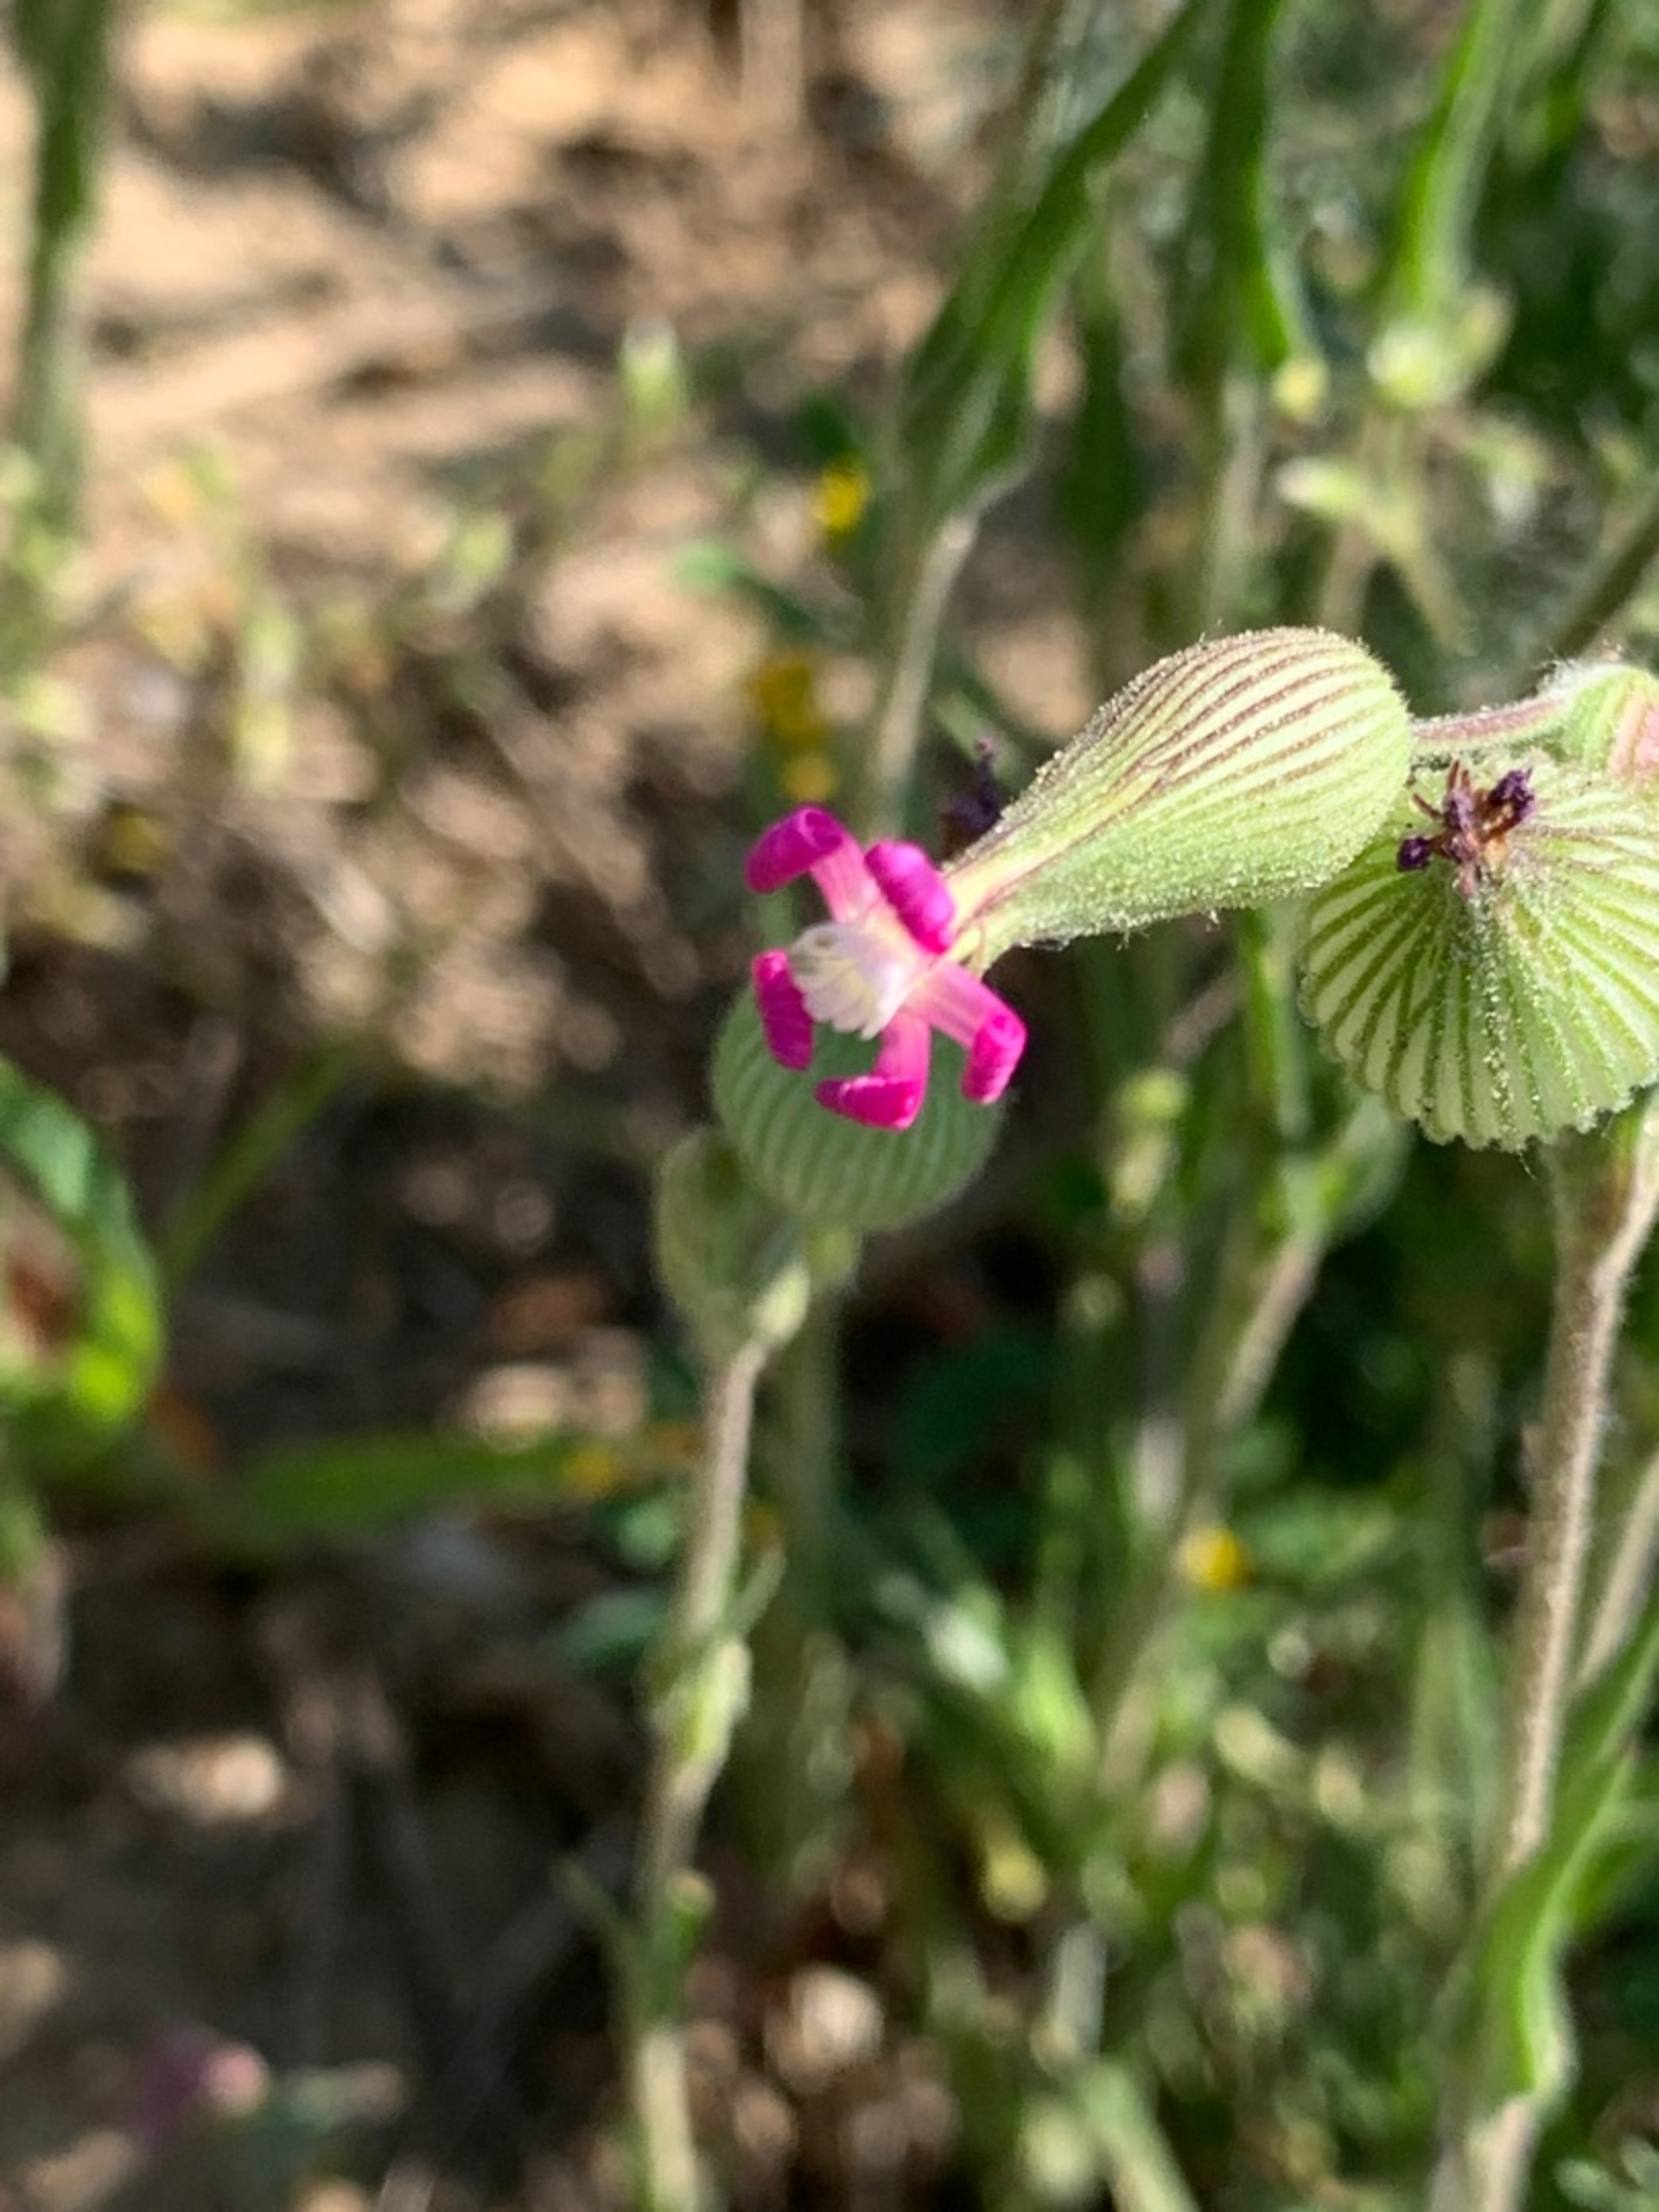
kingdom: Plantae
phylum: Tracheophyta
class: Magnoliopsida
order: Caryophyllales
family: Caryophyllaceae
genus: Silene
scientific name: Silene conica
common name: Kegle-limurt
